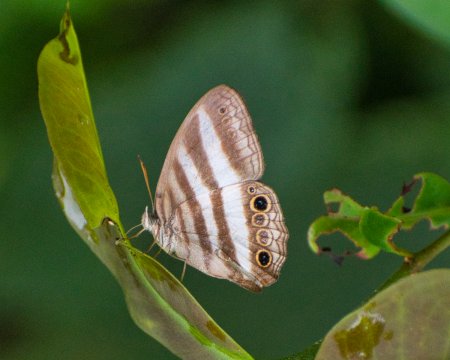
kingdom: Animalia
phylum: Arthropoda
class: Insecta
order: Lepidoptera
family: Nymphalidae
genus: Pareuptychia
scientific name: Pareuptychia hesione
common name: White Satyr
